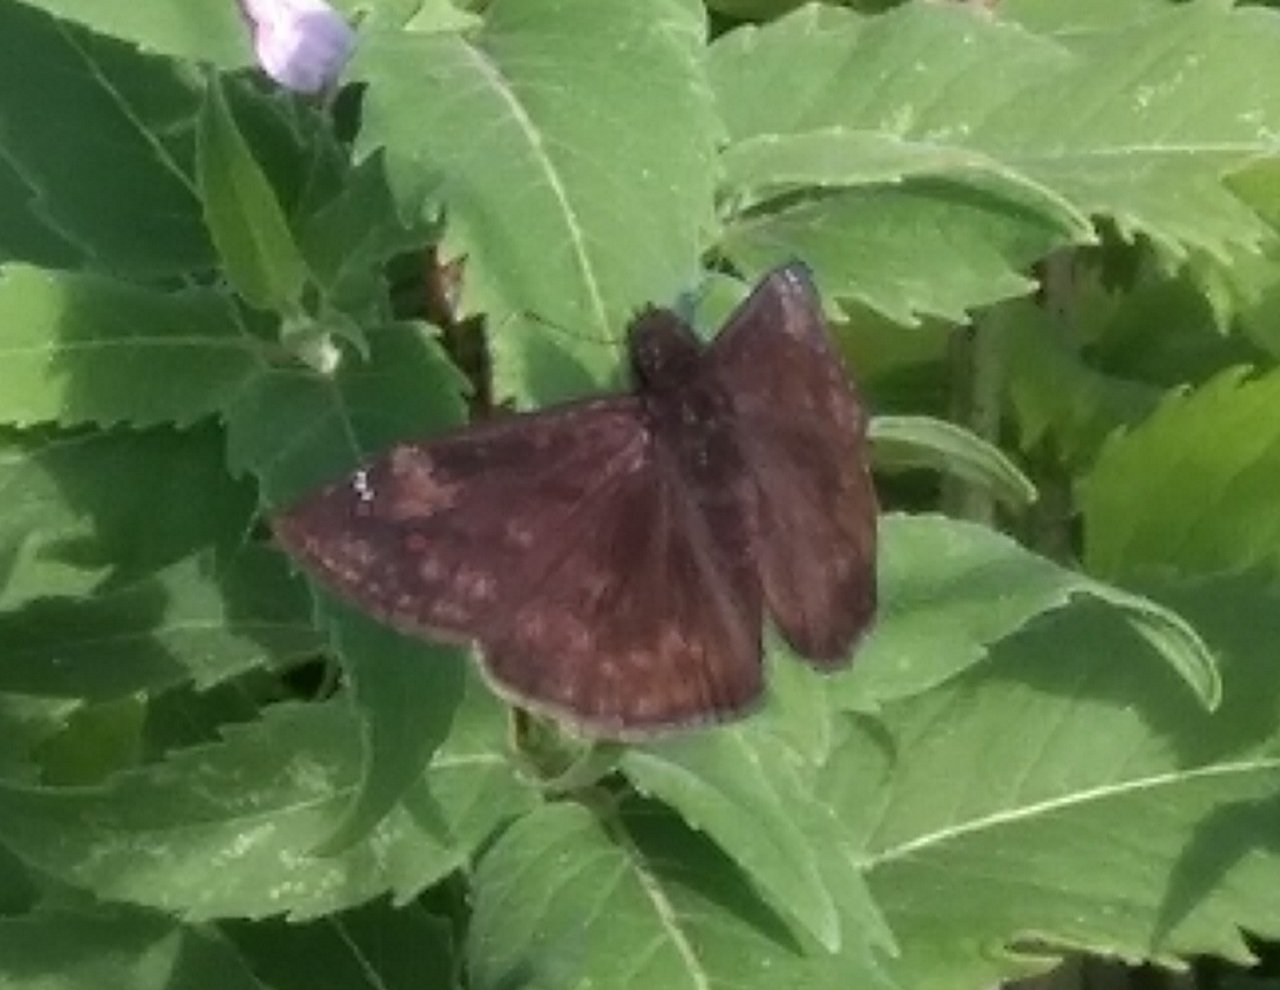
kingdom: Animalia
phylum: Arthropoda
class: Insecta
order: Lepidoptera
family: Hesperiidae
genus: Erynnis
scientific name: Erynnis zarucco
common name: Zarucco Duskywing
